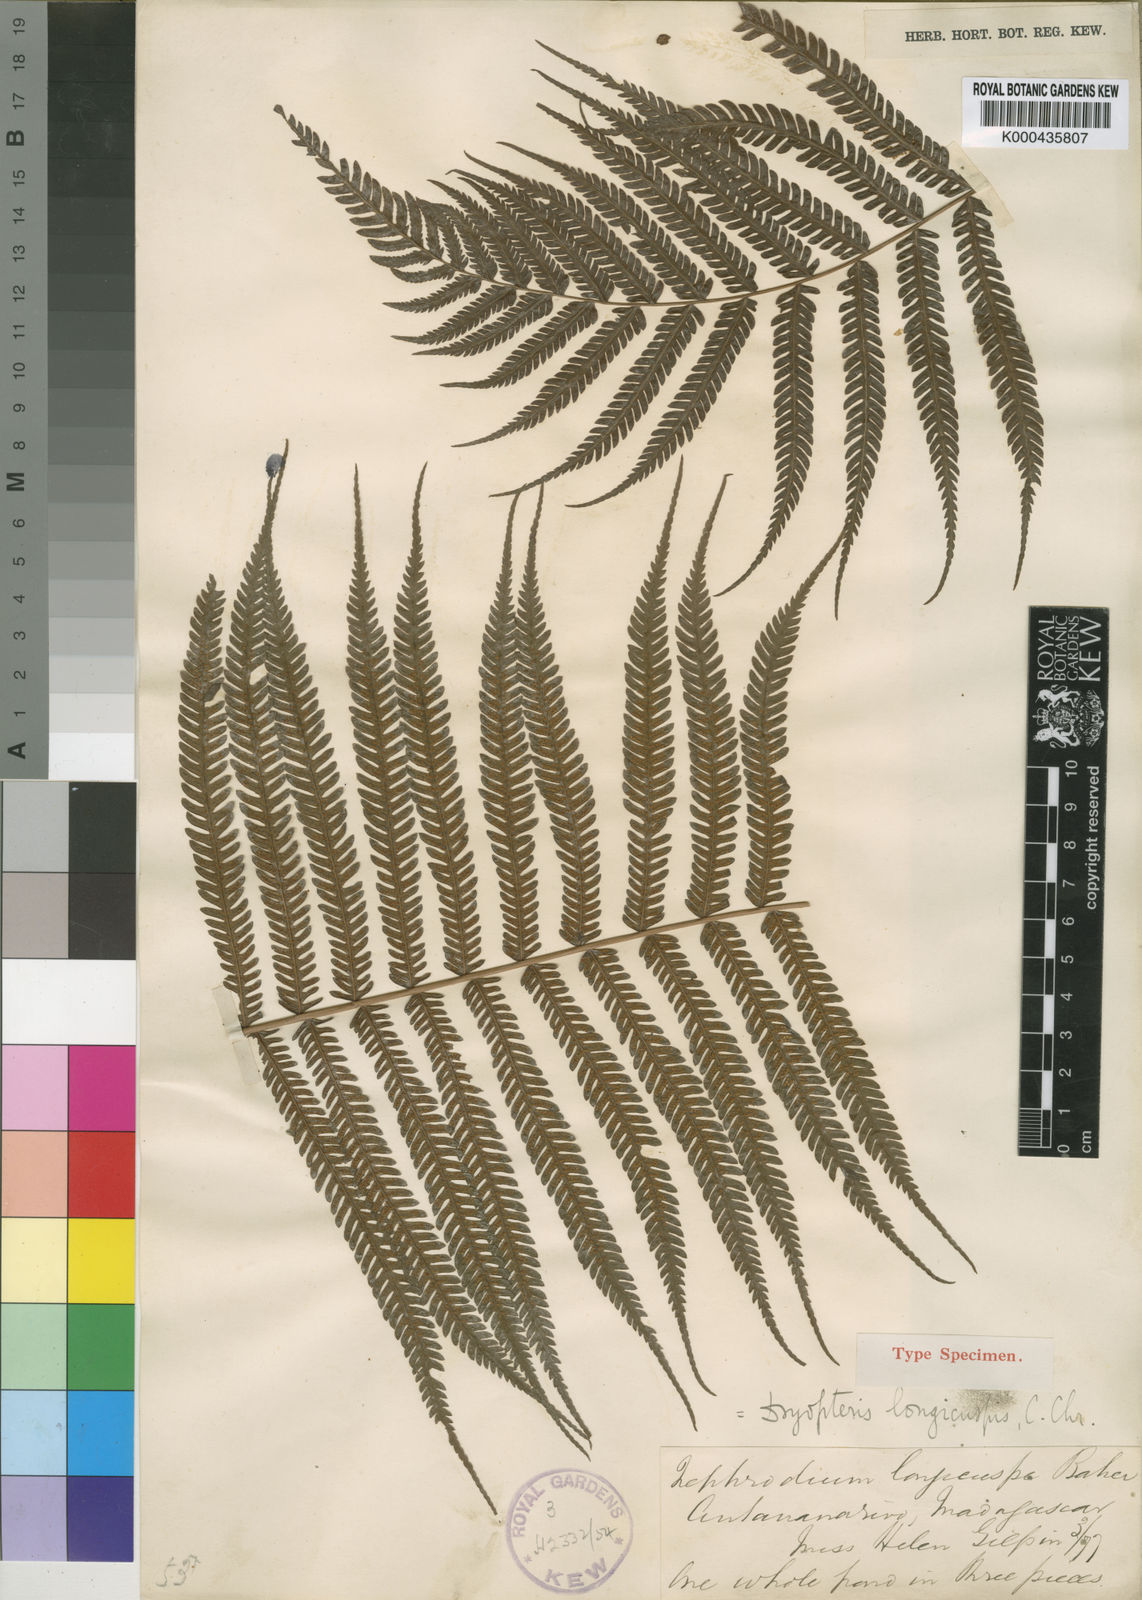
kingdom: Plantae
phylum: Tracheophyta
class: Polypodiopsida
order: Polypodiales
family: Thelypteridaceae
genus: Pseudocyclosorus
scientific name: Pseudocyclosorus pulcher
